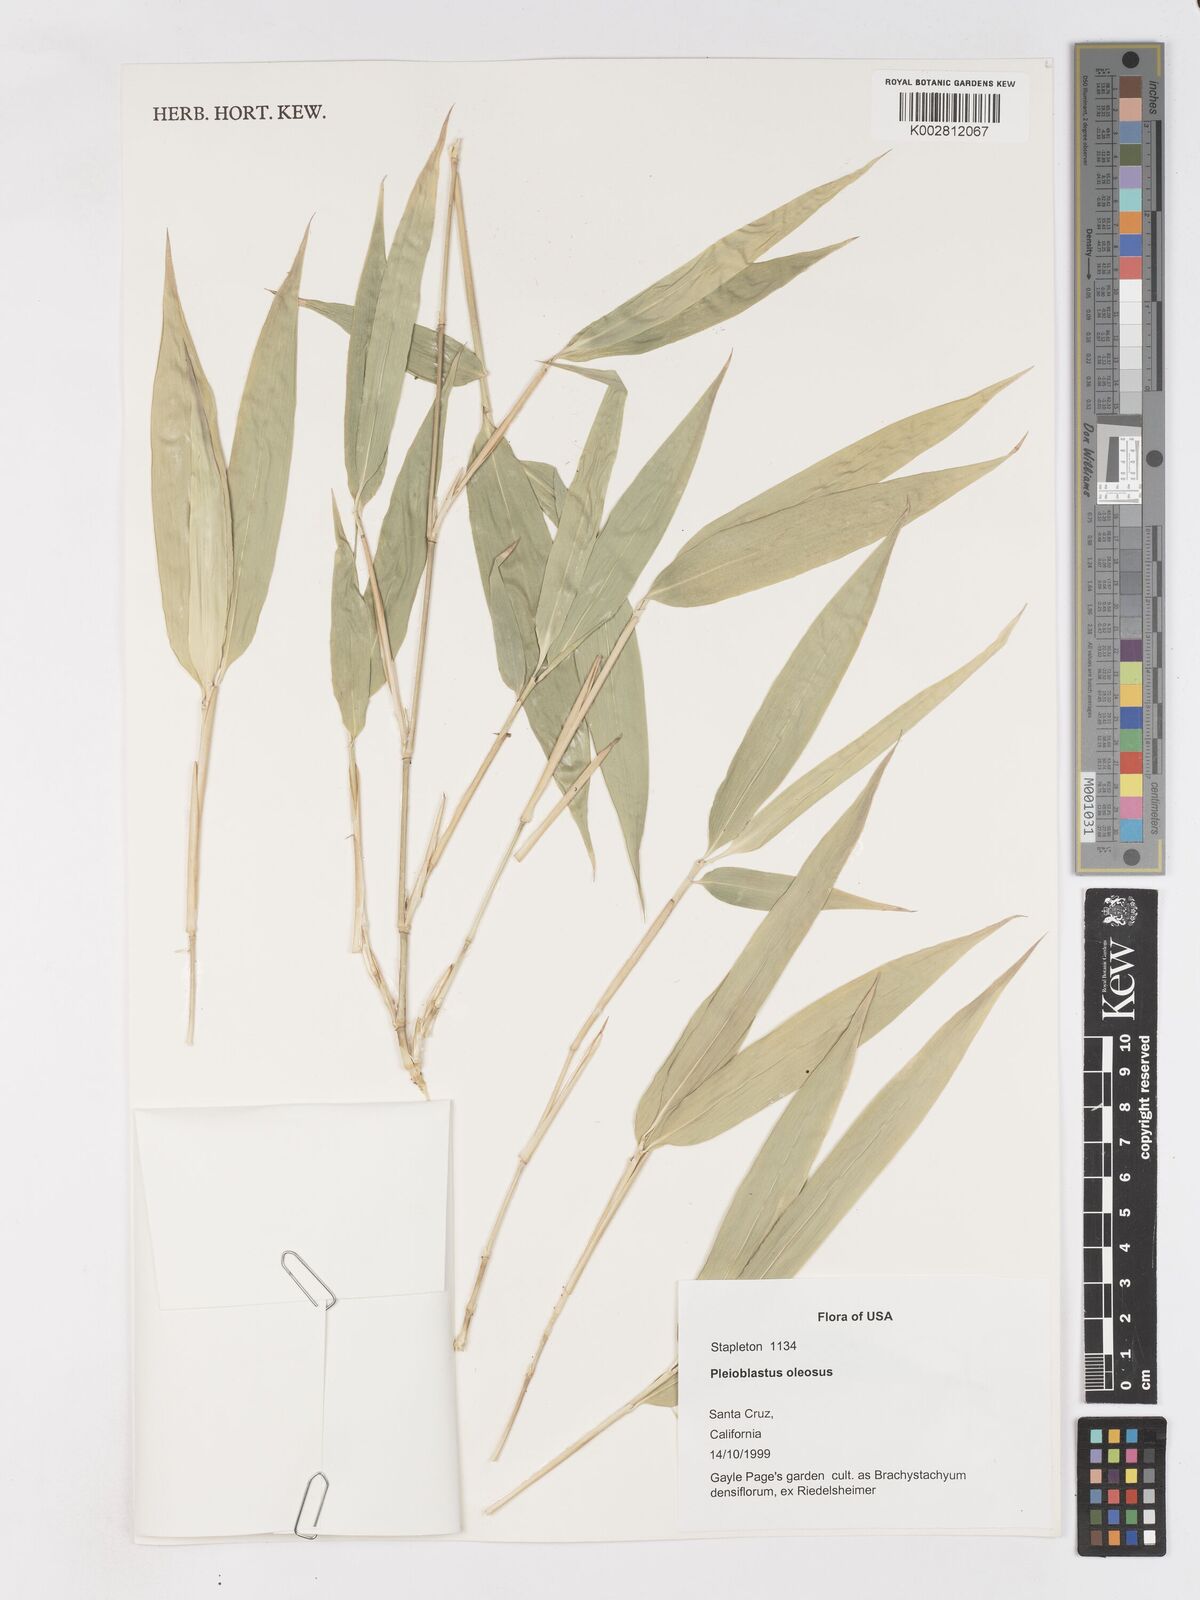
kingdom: Plantae
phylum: Tracheophyta
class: Liliopsida
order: Poales
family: Poaceae
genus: Arundinaria
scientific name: Arundinaria
